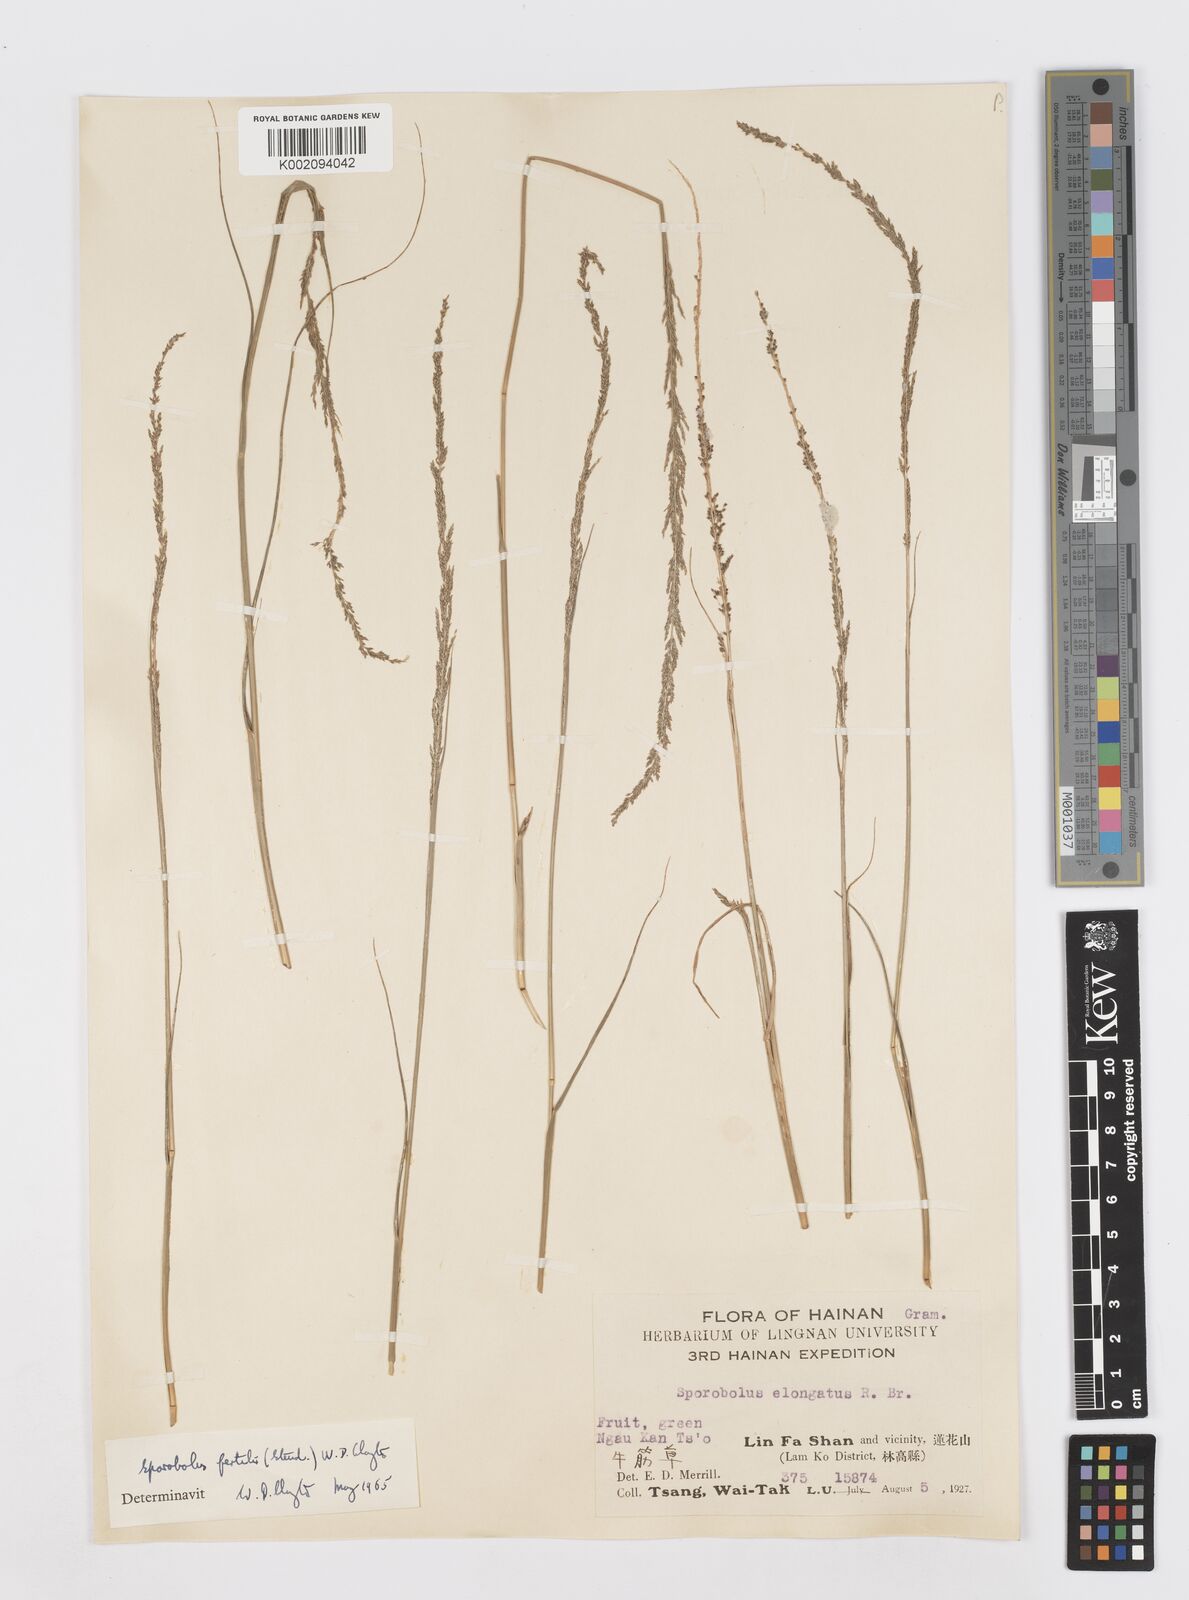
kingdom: Plantae
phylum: Tracheophyta
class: Liliopsida
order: Poales
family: Poaceae
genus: Sporobolus
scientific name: Sporobolus fertilis
